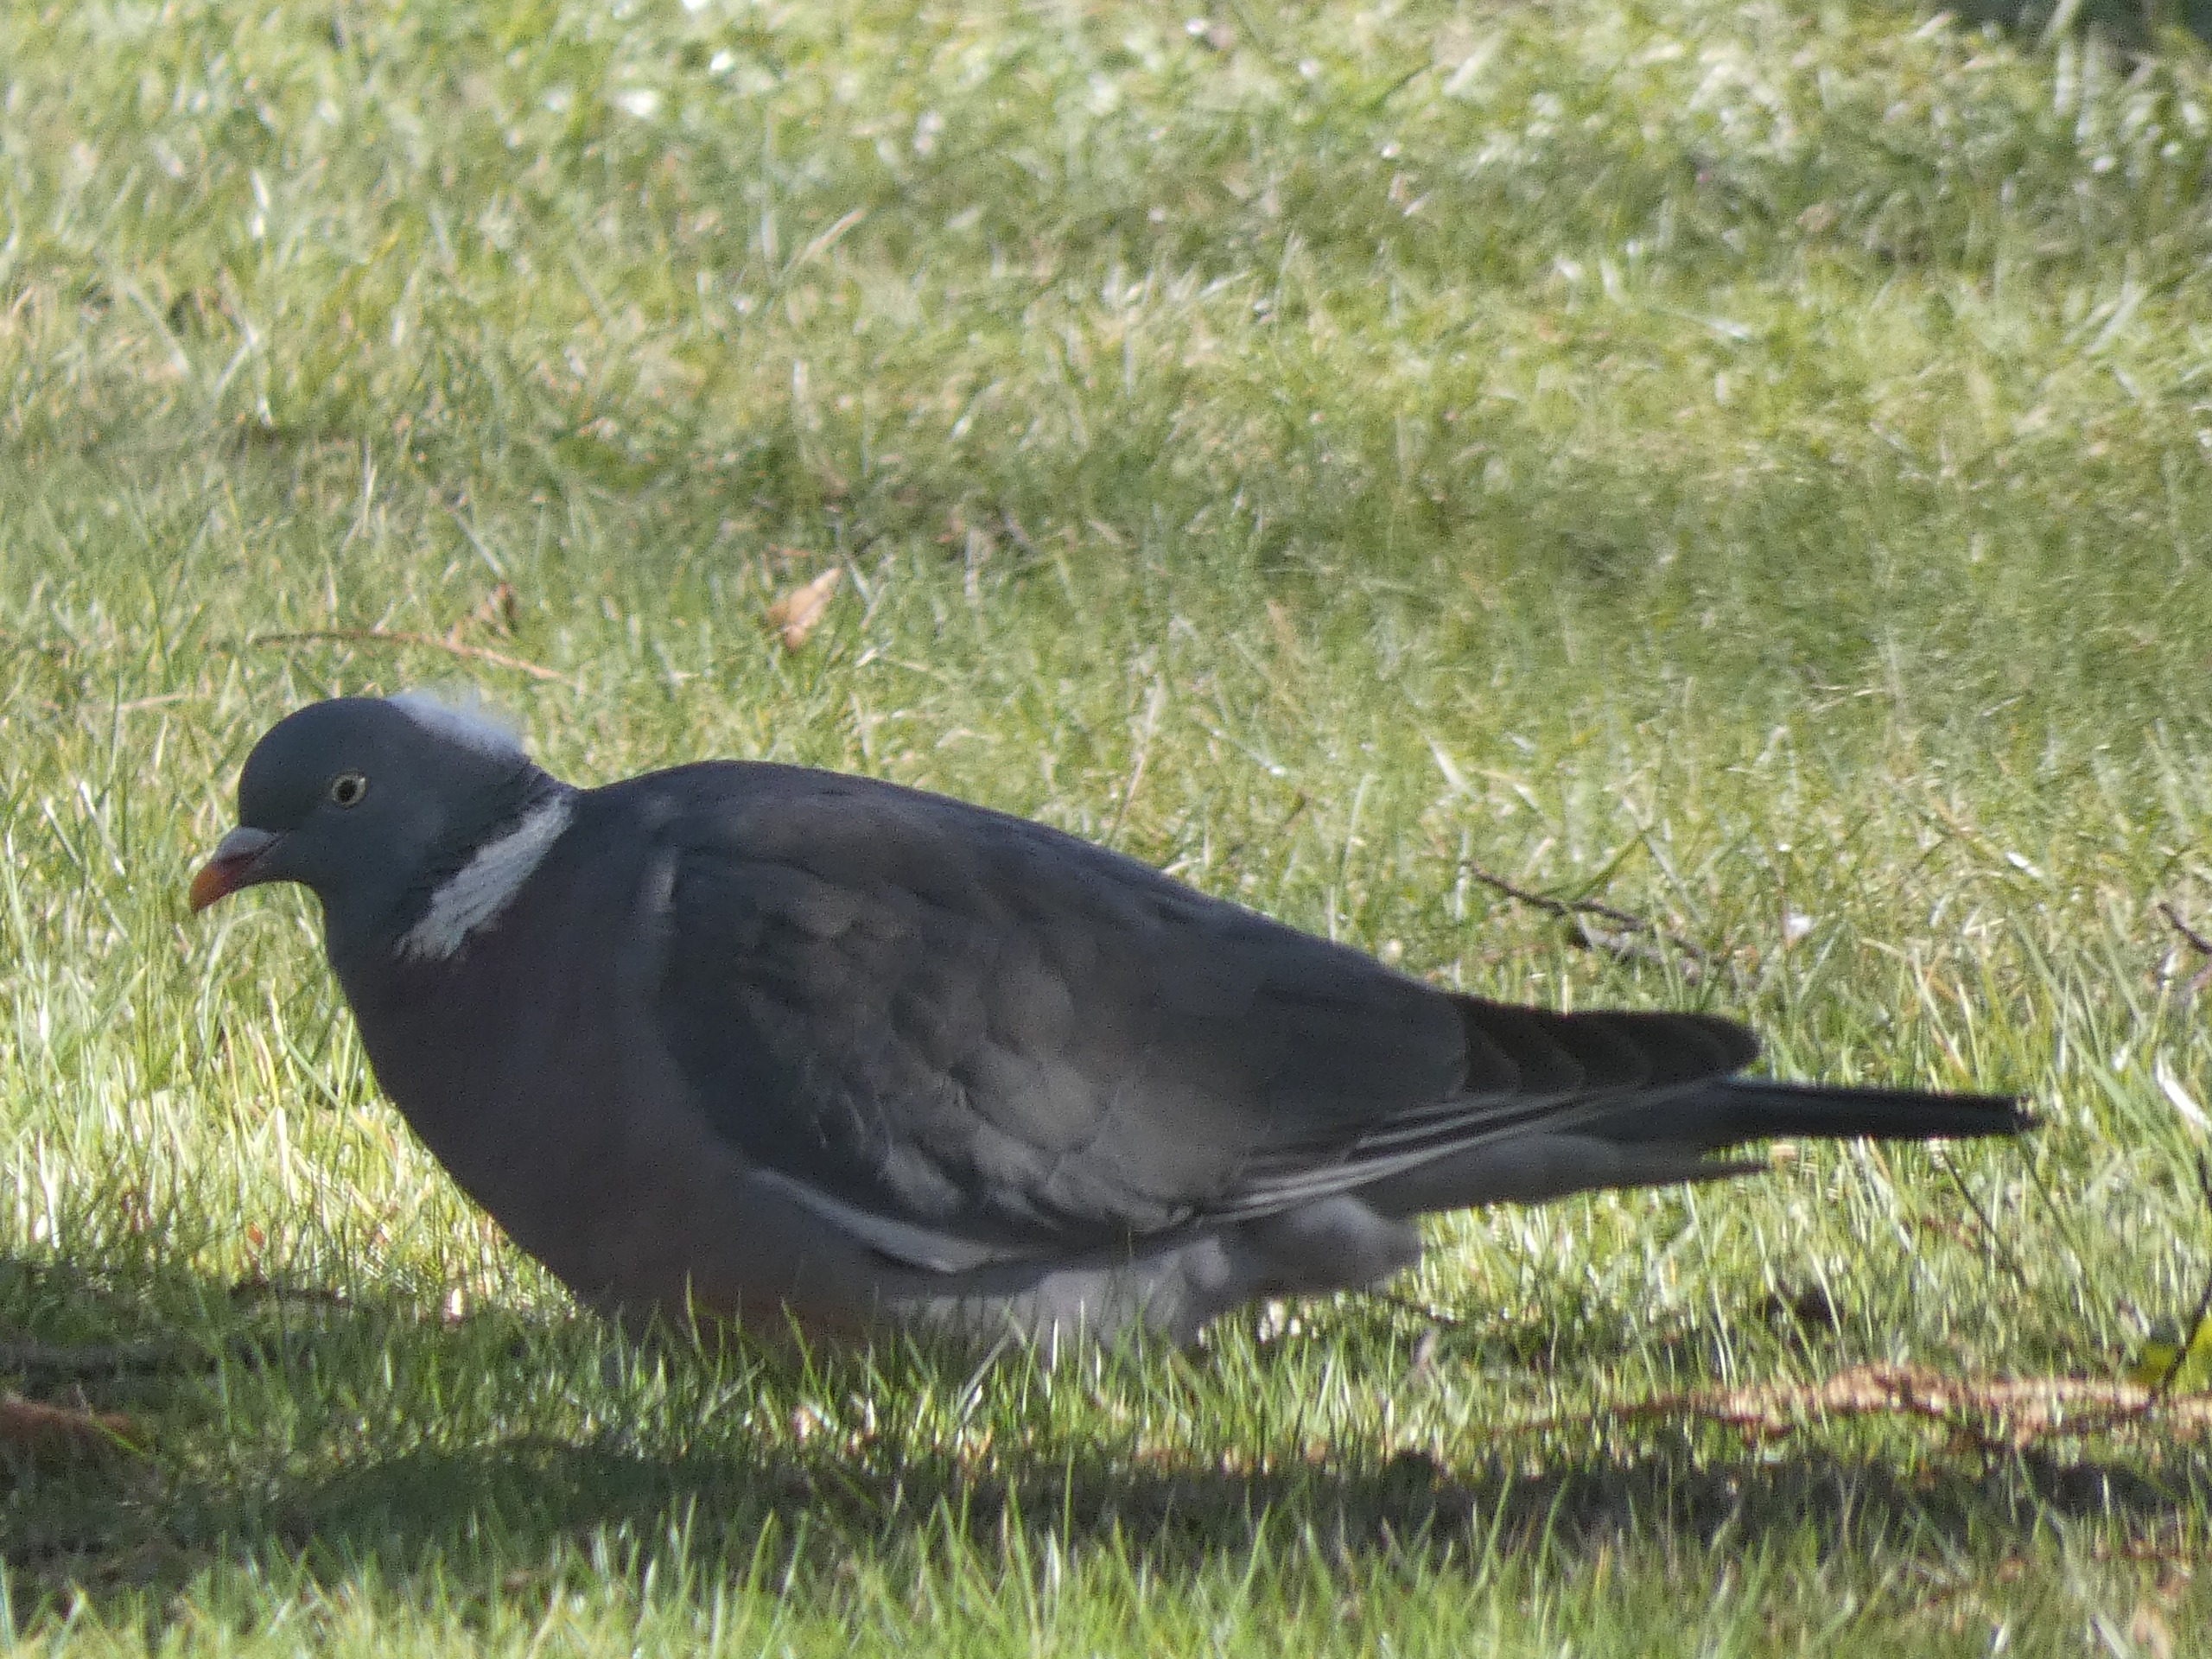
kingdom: Animalia
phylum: Chordata
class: Aves
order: Columbiformes
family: Columbidae
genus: Columba
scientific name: Columba palumbus
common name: Ringdue
